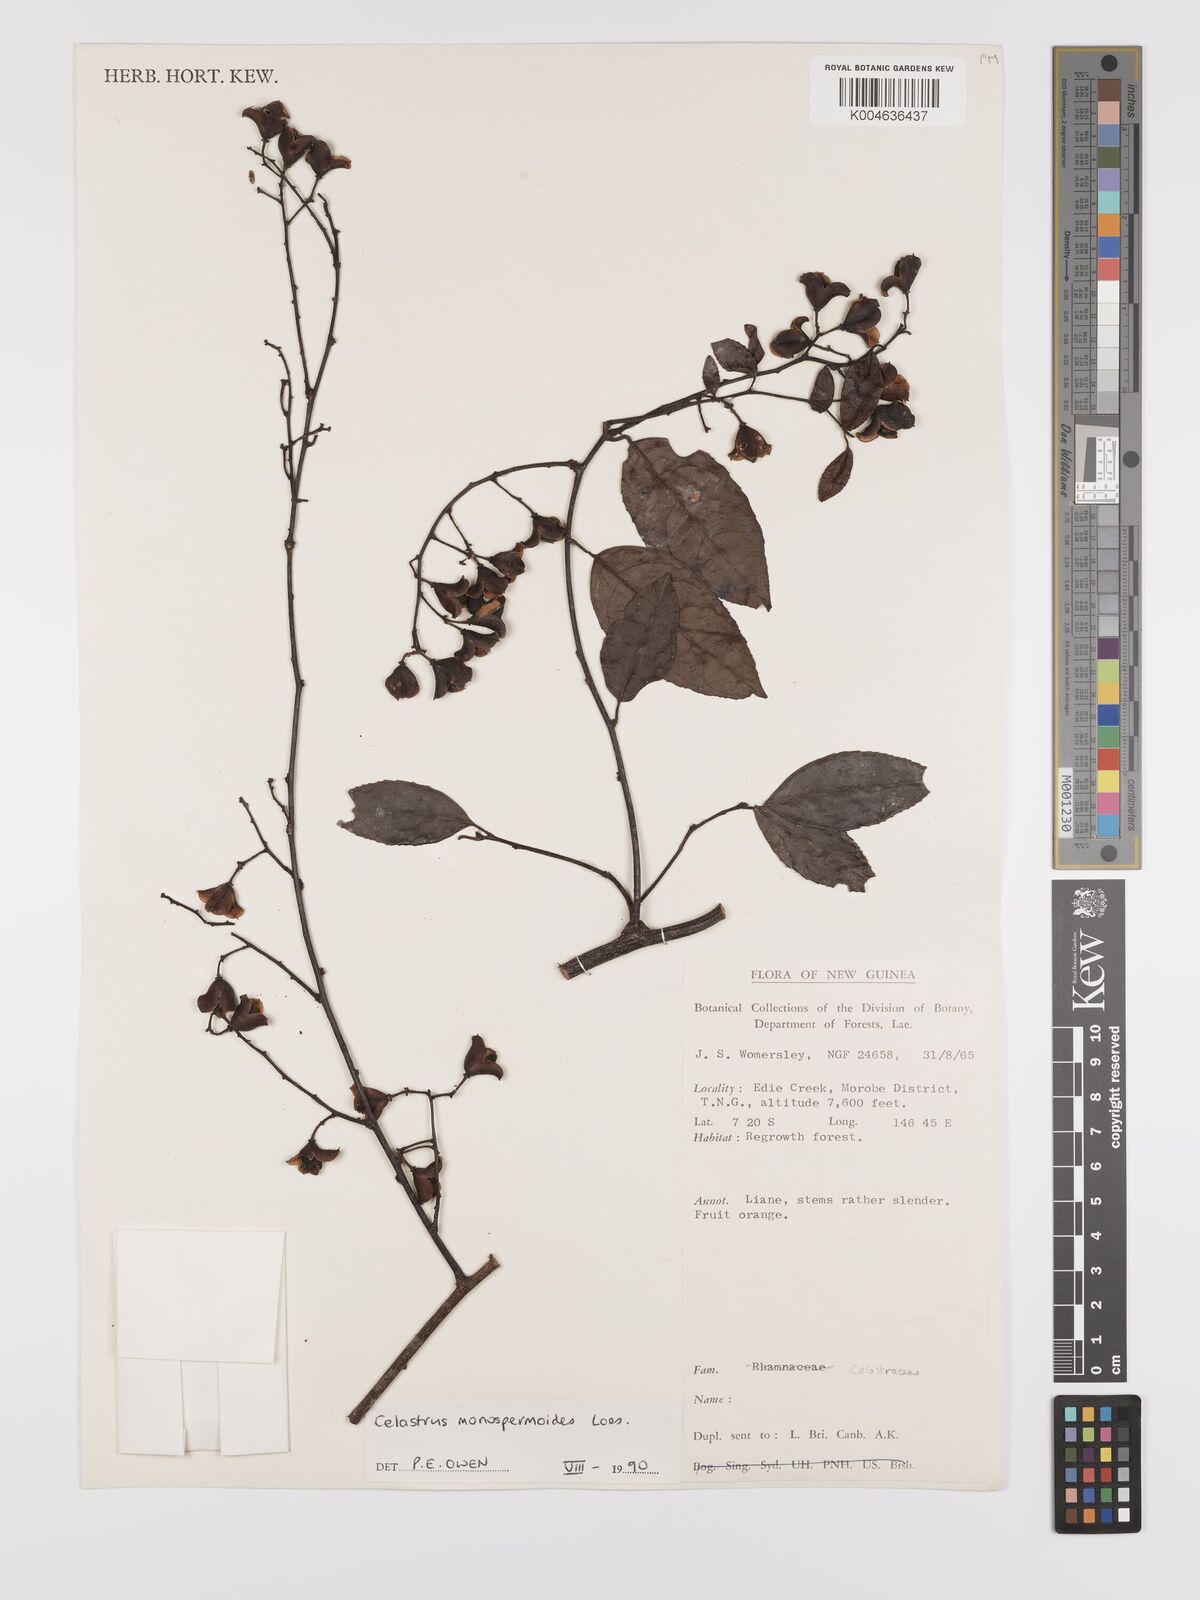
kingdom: Plantae
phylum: Tracheophyta
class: Magnoliopsida
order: Celastrales
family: Celastraceae
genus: Celastrus
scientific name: Celastrus monospermoides
